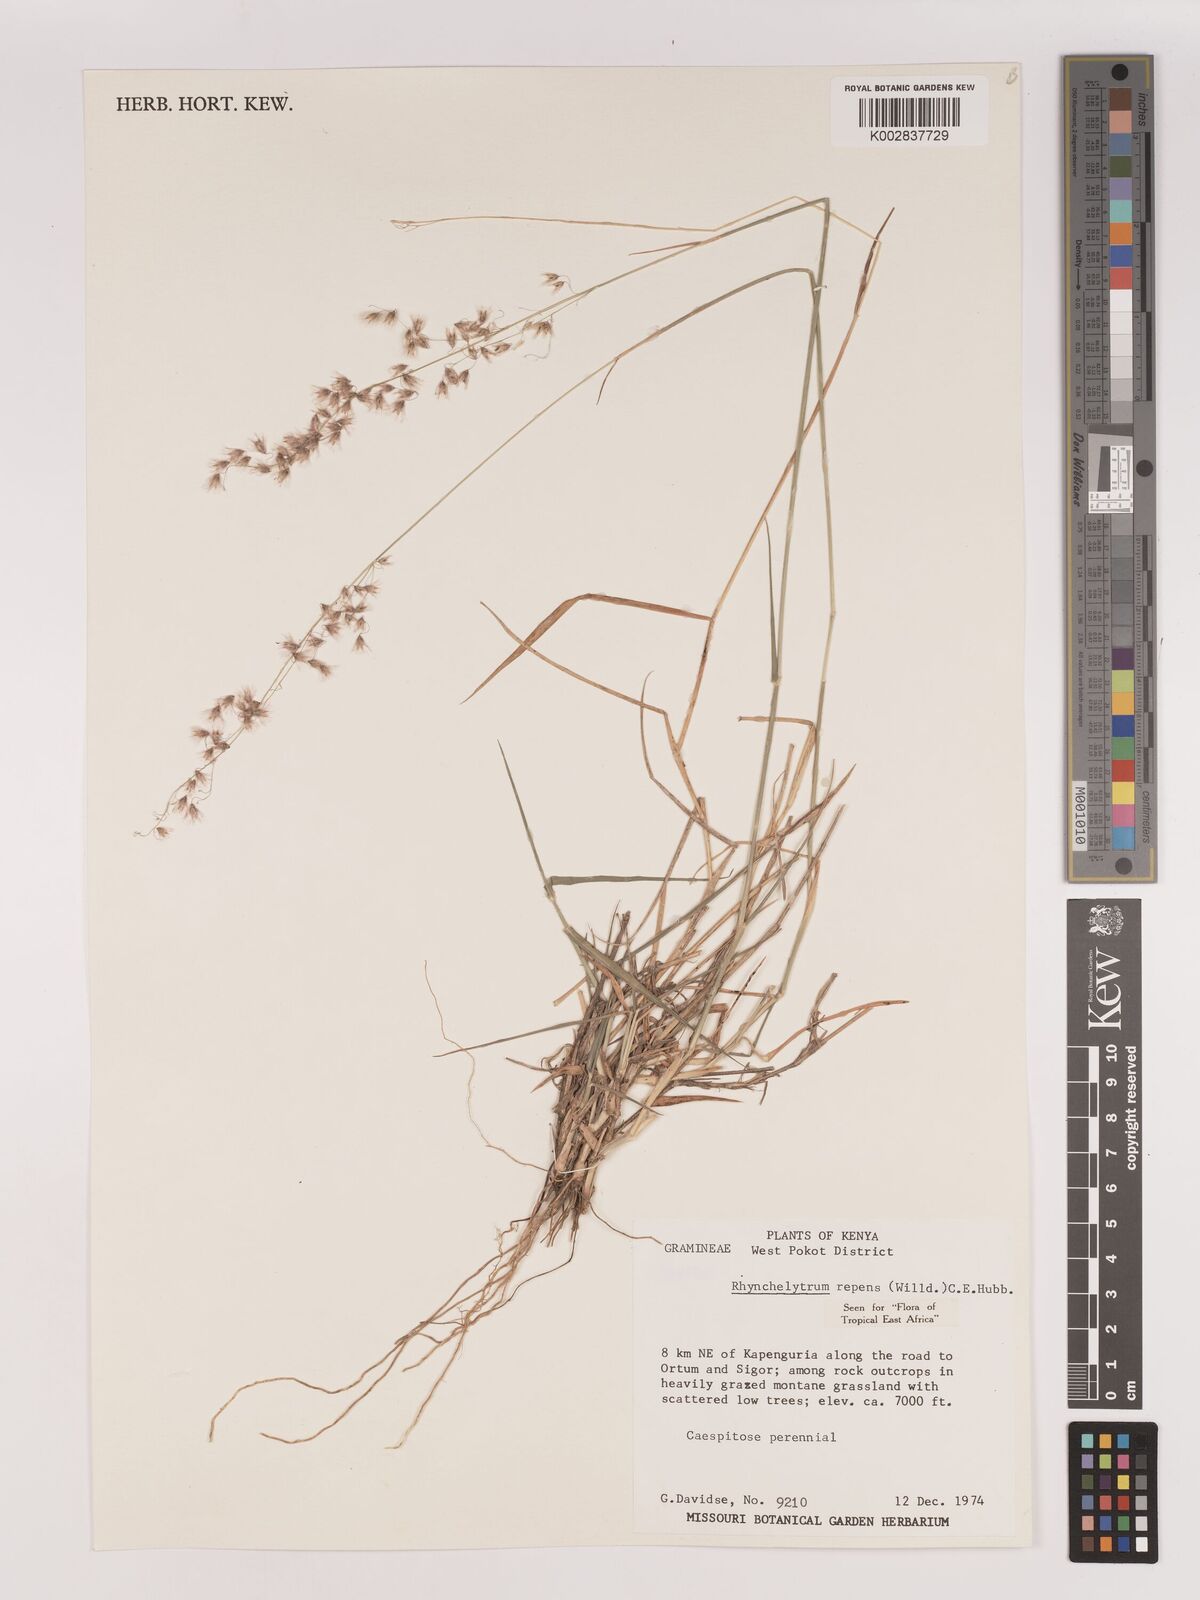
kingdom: Plantae
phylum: Tracheophyta
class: Liliopsida
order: Poales
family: Poaceae
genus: Melinis
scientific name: Melinis repens
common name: Rose natal grass
